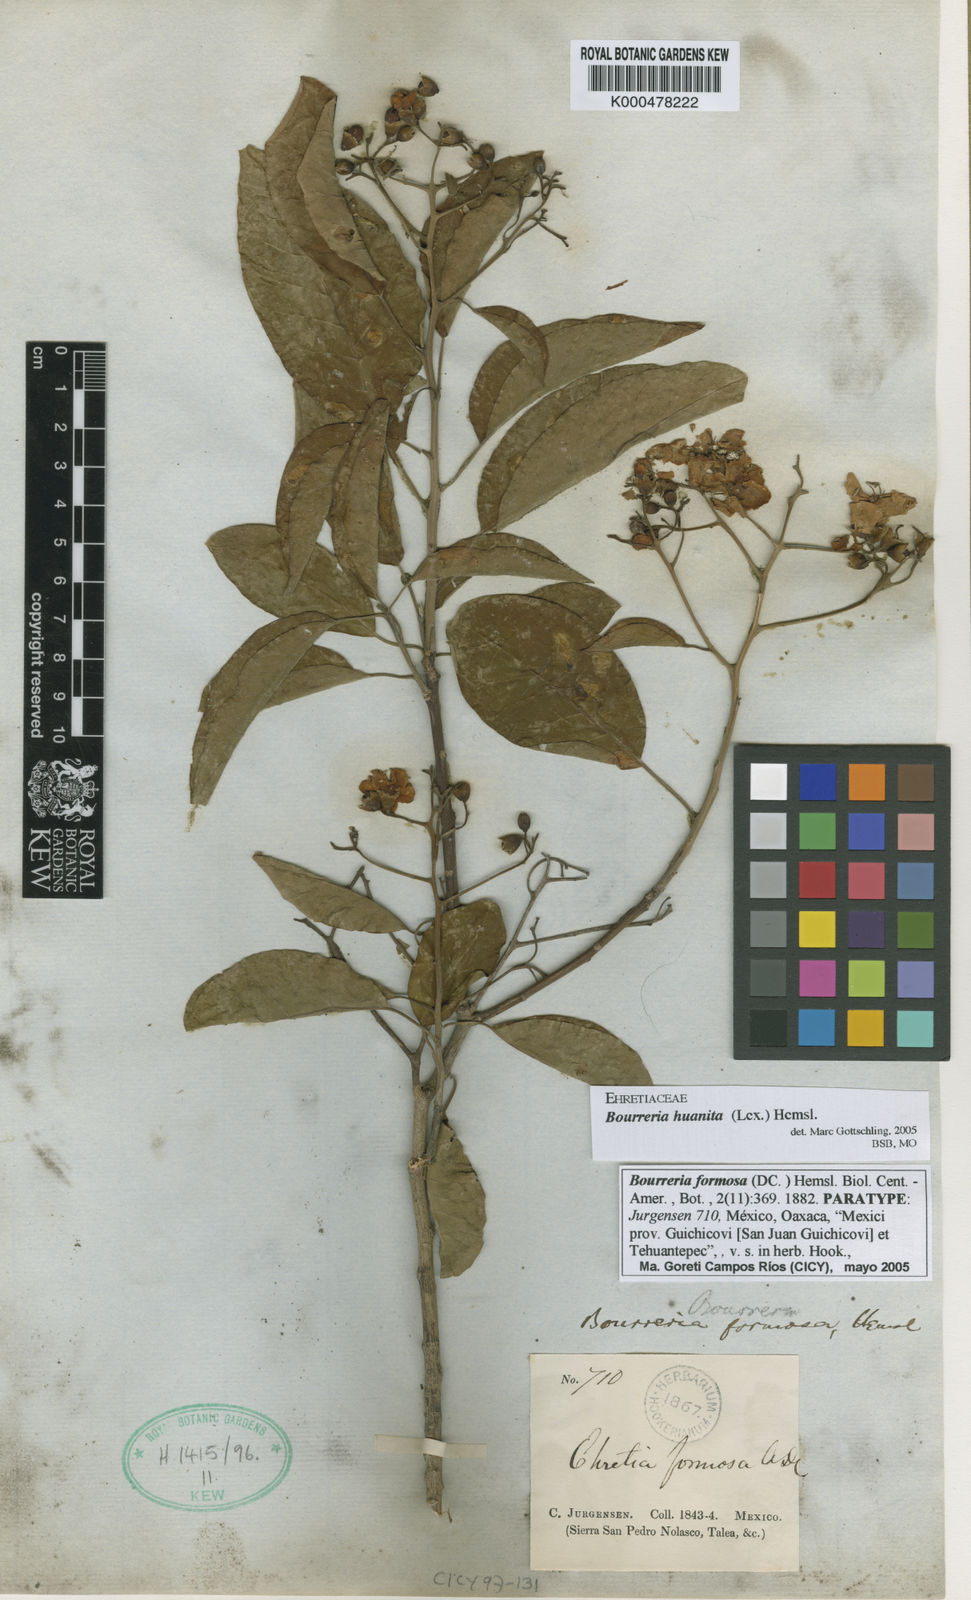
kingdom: Plantae
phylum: Tracheophyta
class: Magnoliopsida
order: Boraginales
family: Ehretiaceae
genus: Bourreria
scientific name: Bourreria huanita
